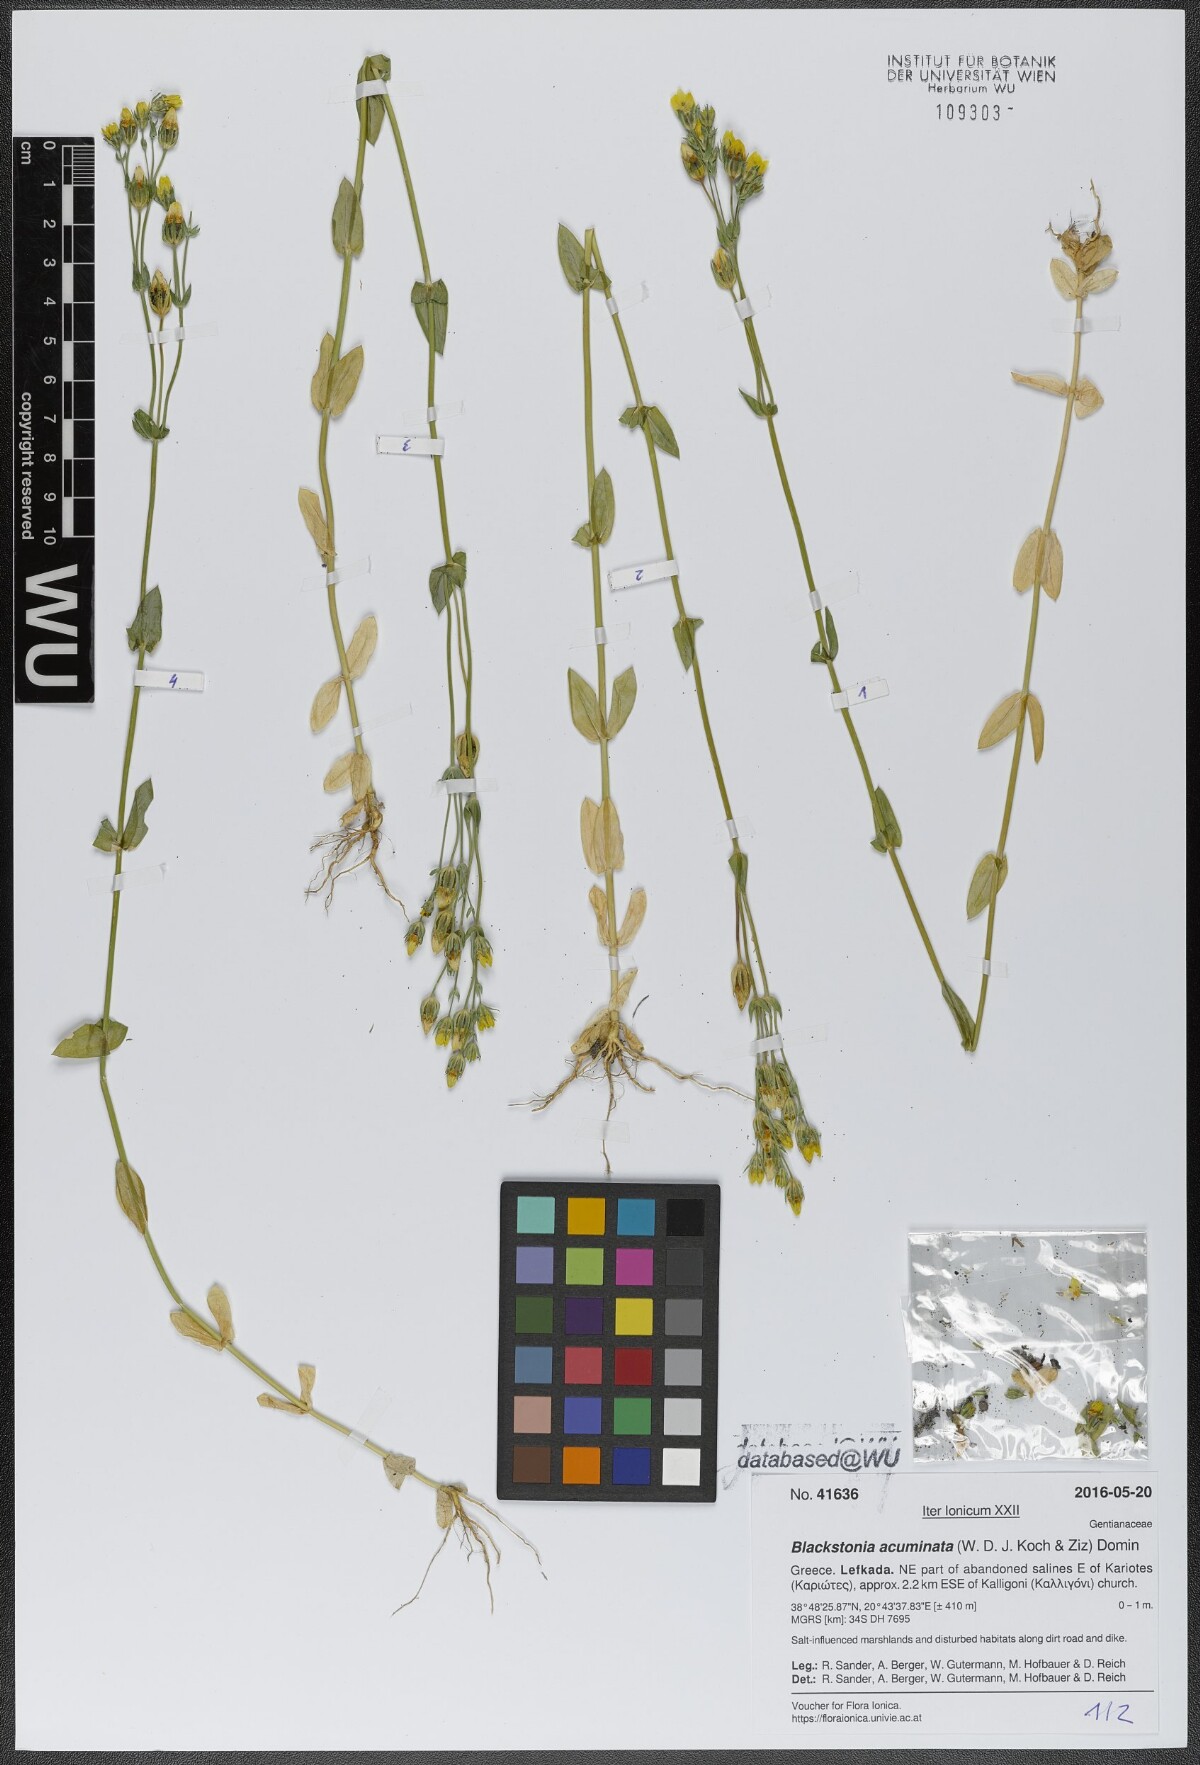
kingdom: Plantae
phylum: Tracheophyta
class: Magnoliopsida
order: Gentianales
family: Gentianaceae
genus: Blackstonia
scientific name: Blackstonia acuminata
